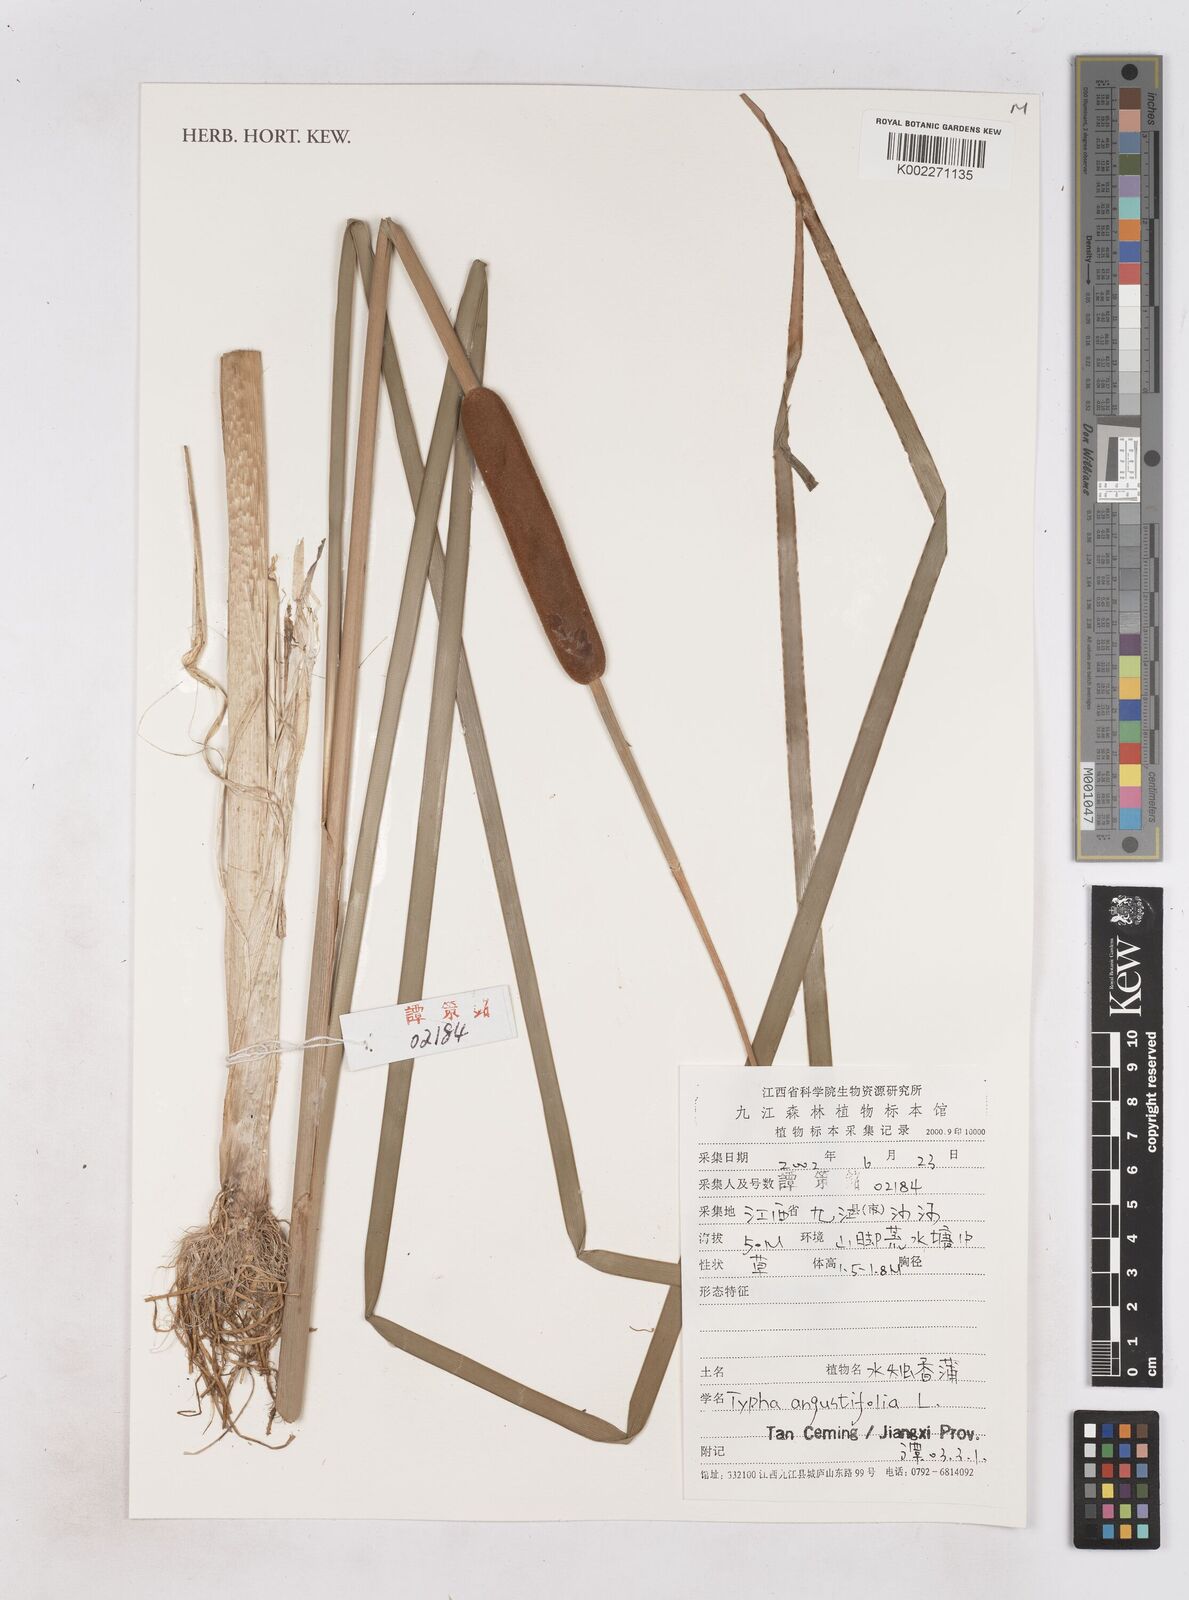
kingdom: Plantae
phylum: Tracheophyta
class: Liliopsida
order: Poales
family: Typhaceae
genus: Typha
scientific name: Typha angustifolia
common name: Lesser bulrush
